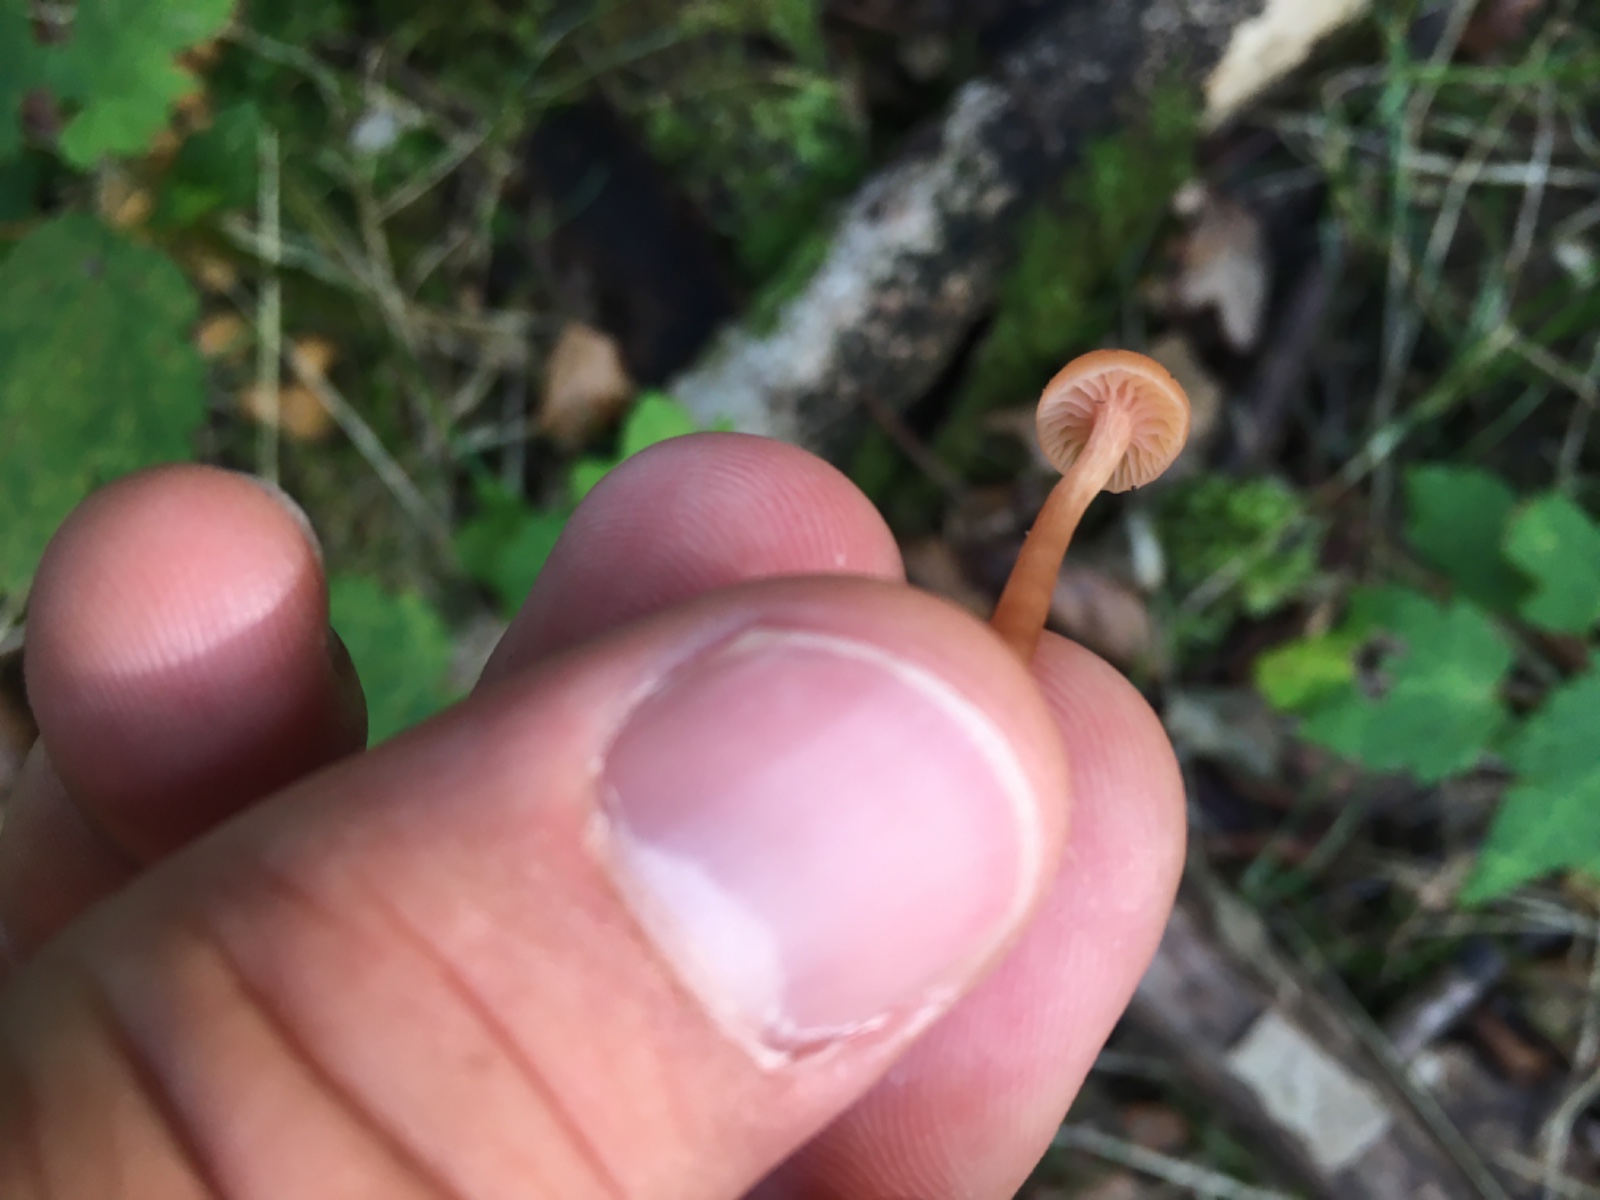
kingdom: Fungi
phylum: Basidiomycota
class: Agaricomycetes
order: Agaricales
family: Hydnangiaceae
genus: Laccaria
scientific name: Laccaria laccata
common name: rød ametysthat
